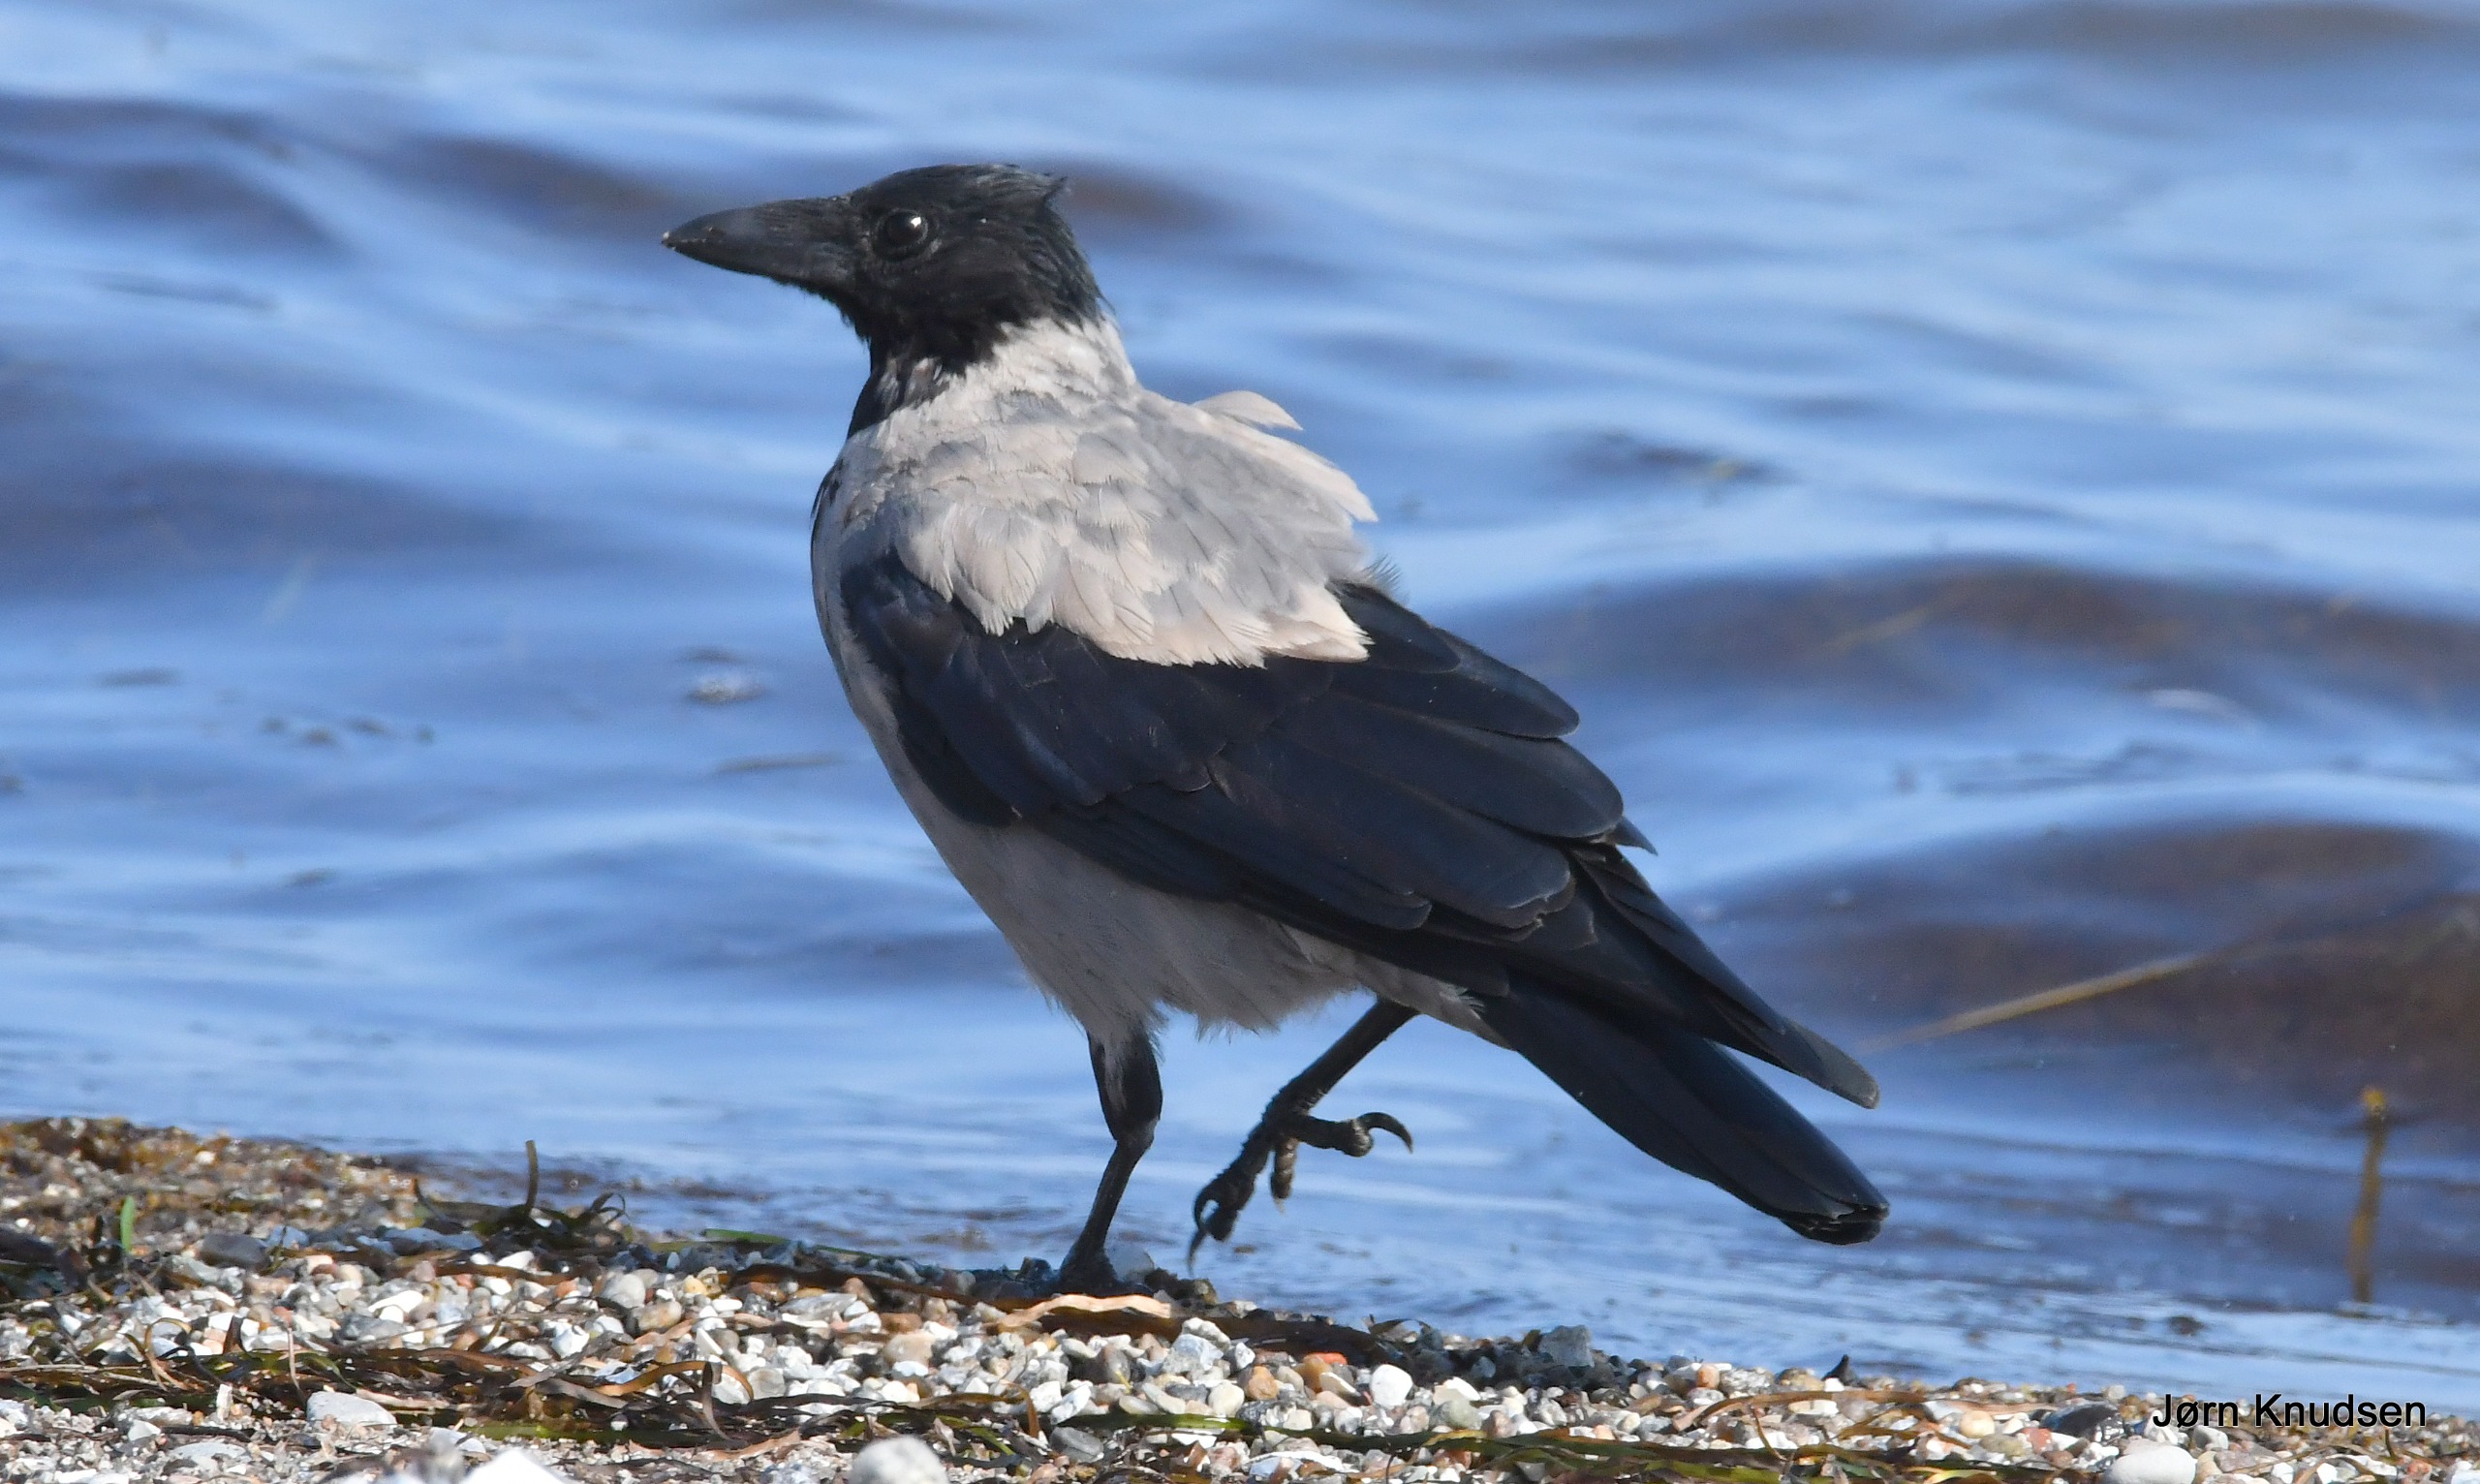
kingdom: Animalia
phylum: Chordata
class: Aves
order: Passeriformes
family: Corvidae
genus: Corvus
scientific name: Corvus cornix
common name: Gråkrage
